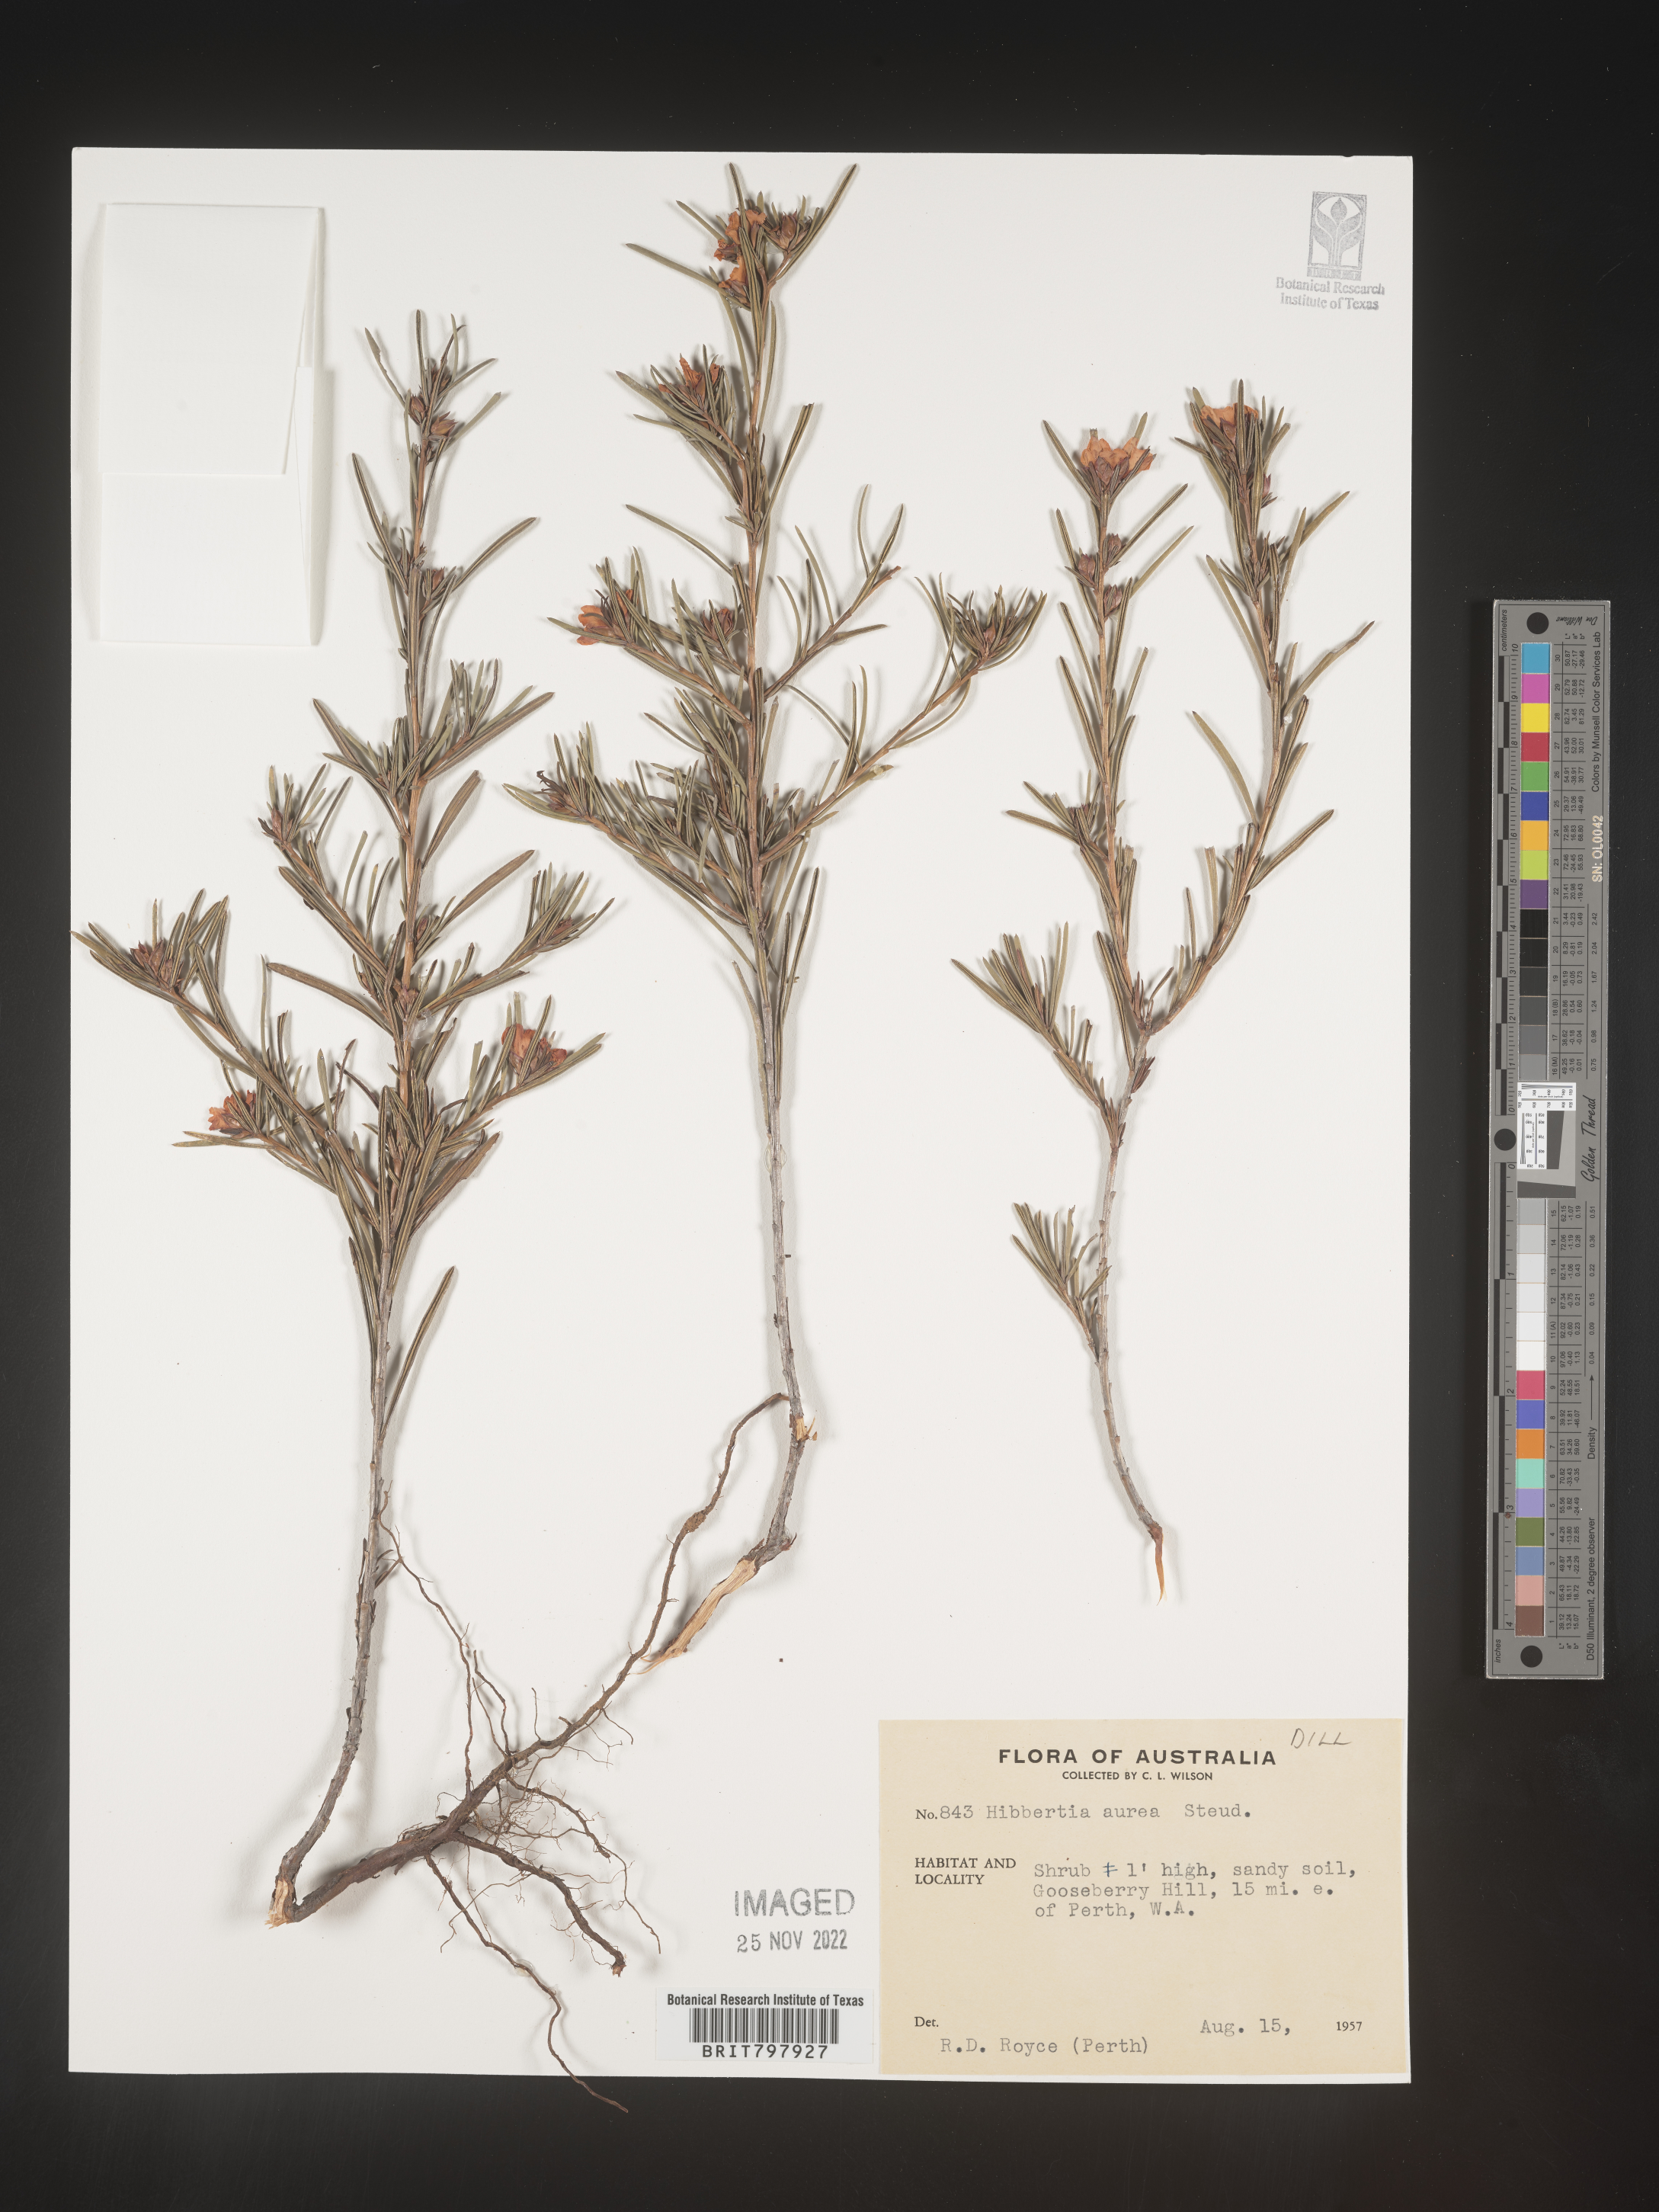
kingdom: Plantae
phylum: Tracheophyta
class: Magnoliopsida
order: Dilleniales
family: Dilleniaceae
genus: Hibbertia
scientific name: Hibbertia
